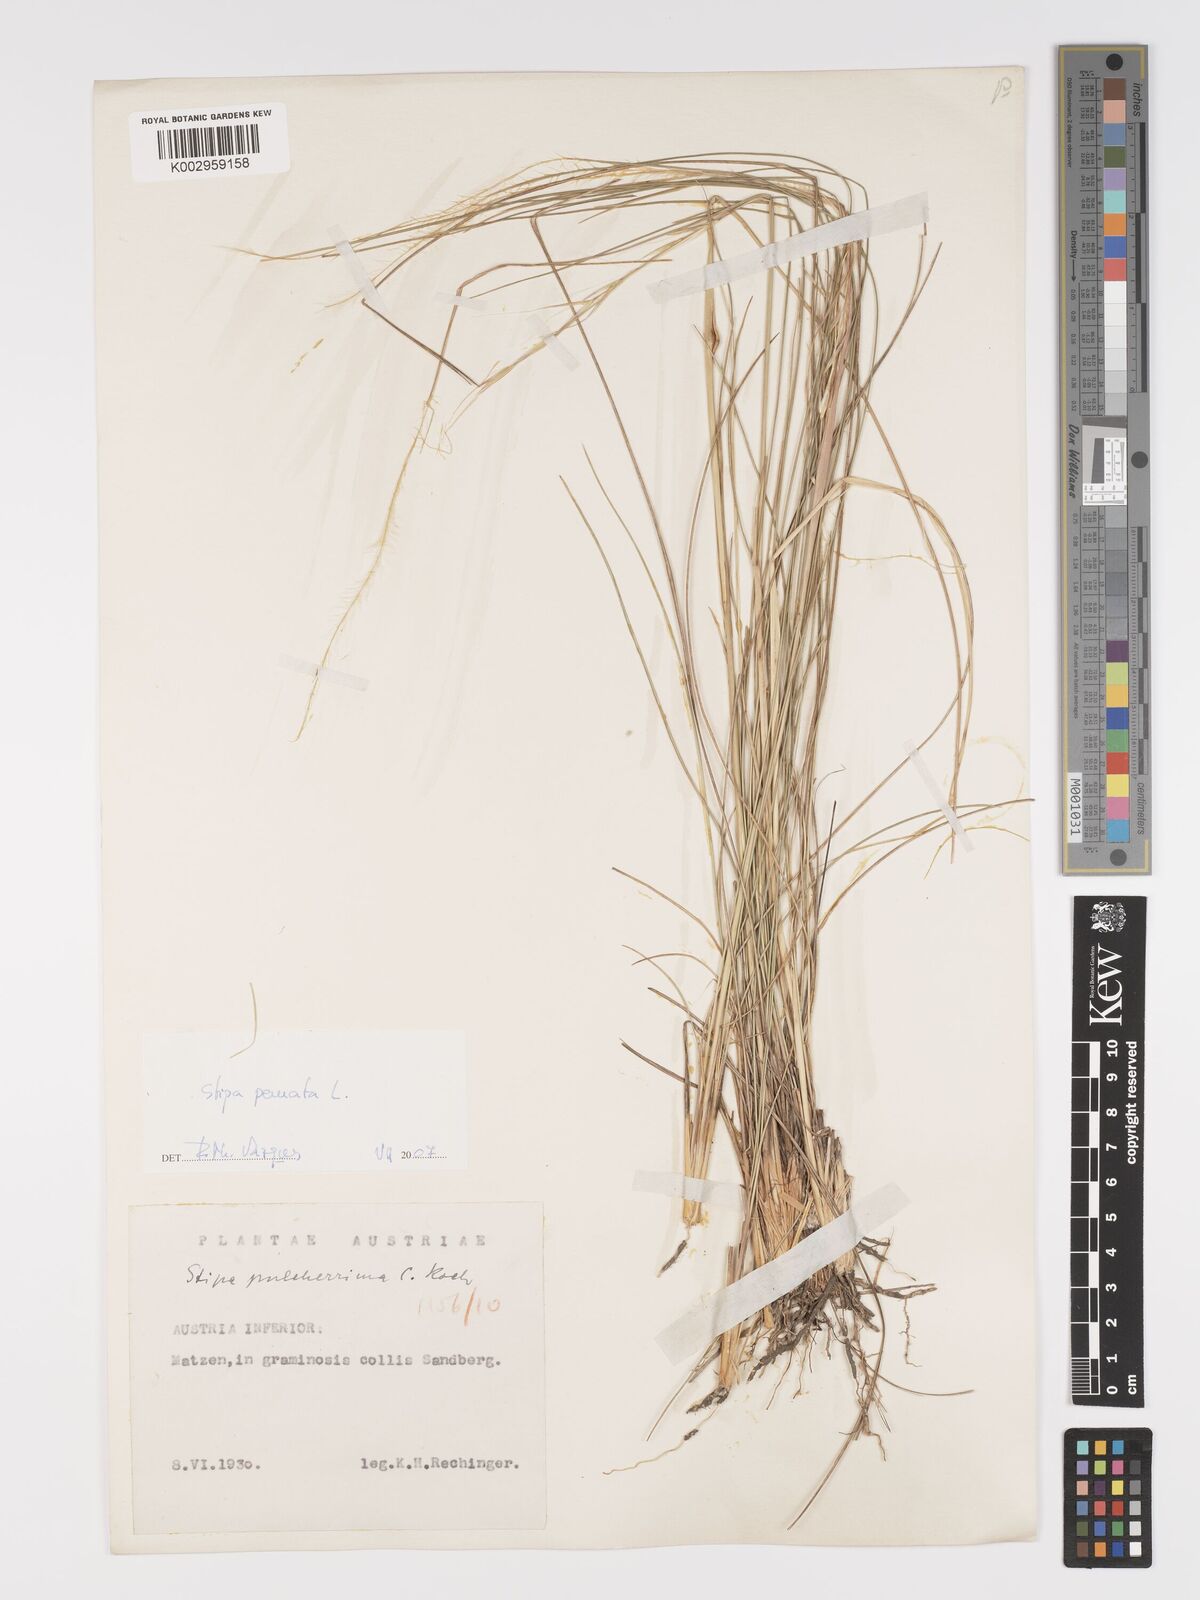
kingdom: Plantae
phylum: Tracheophyta
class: Liliopsida
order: Poales
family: Poaceae
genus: Stipa
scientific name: Stipa pennata
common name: European feather grass
